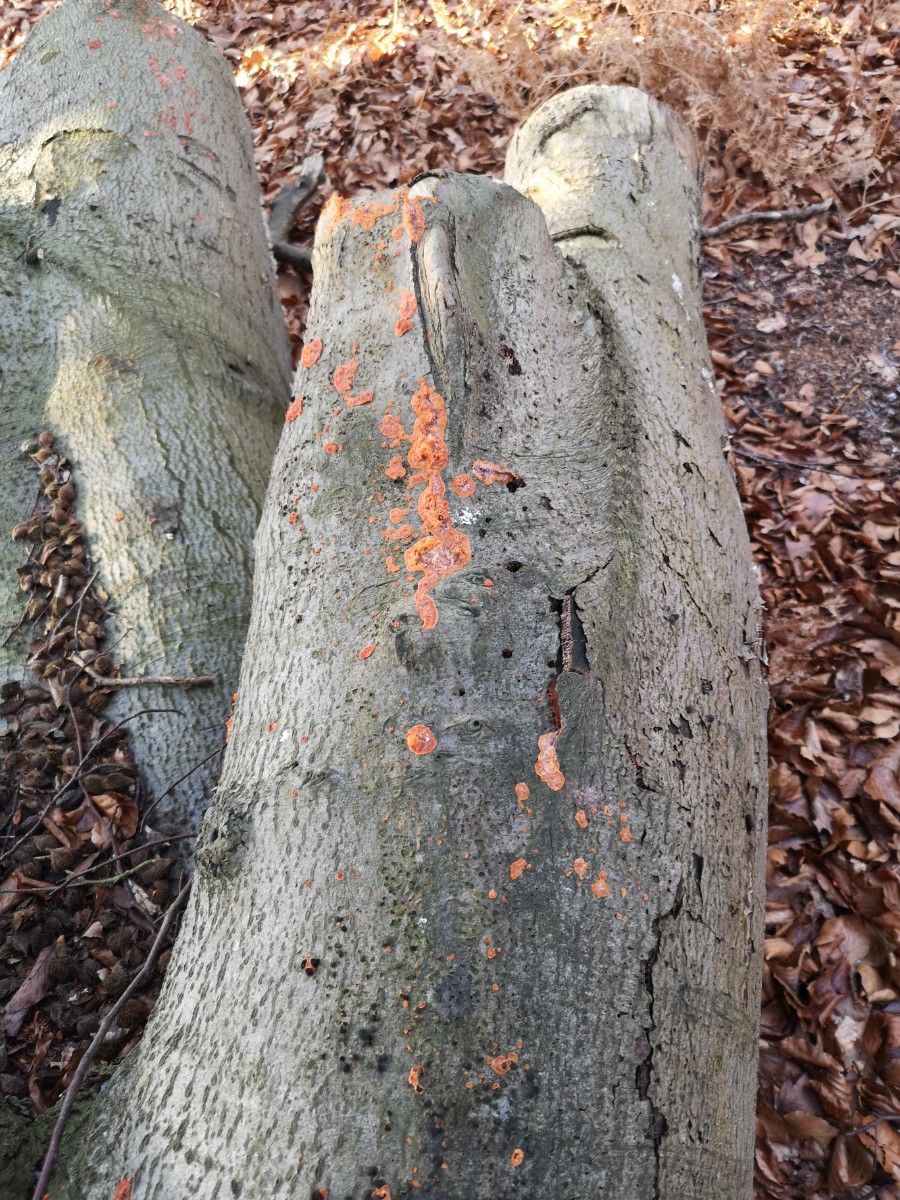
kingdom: Fungi
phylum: Basidiomycota
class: Agaricomycetes
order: Polyporales
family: Meruliaceae
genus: Phlebia
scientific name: Phlebia radiata
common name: stråle-åresvamp
